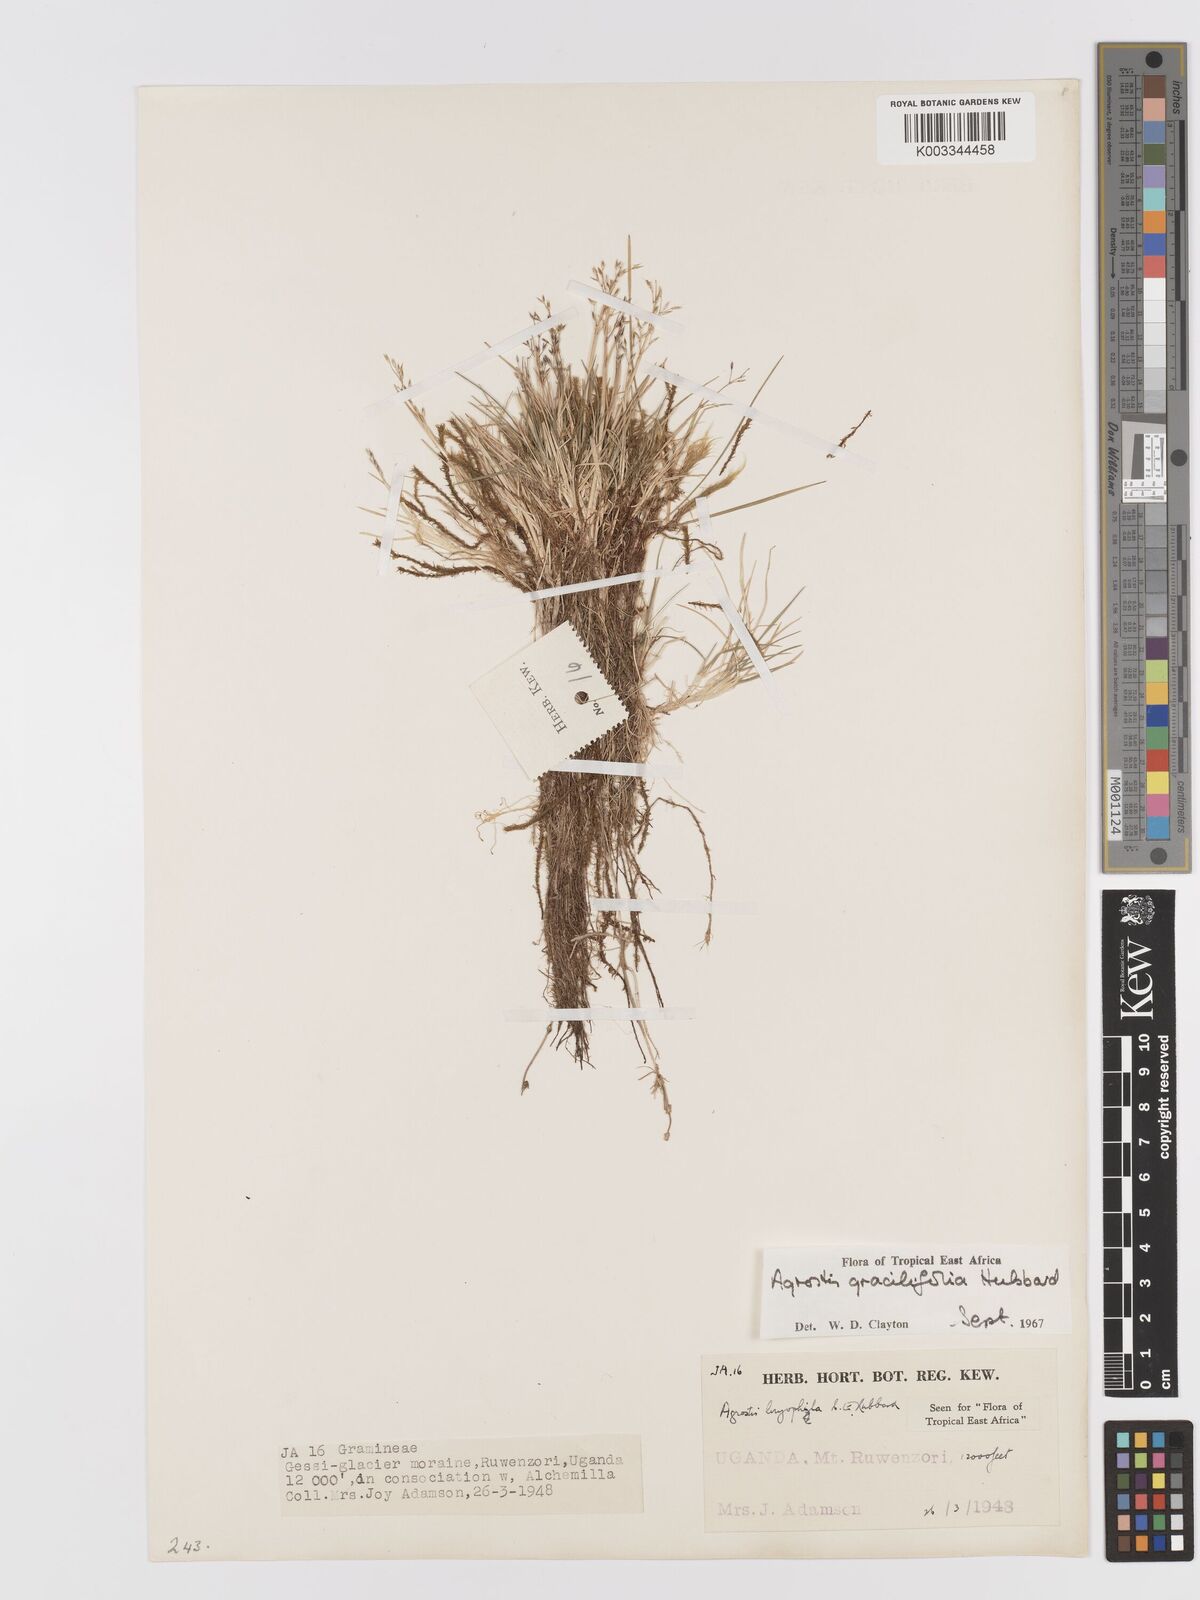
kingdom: Plantae
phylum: Tracheophyta
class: Liliopsida
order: Poales
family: Poaceae
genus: Agrostis
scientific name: Agrostis gracilifolia
